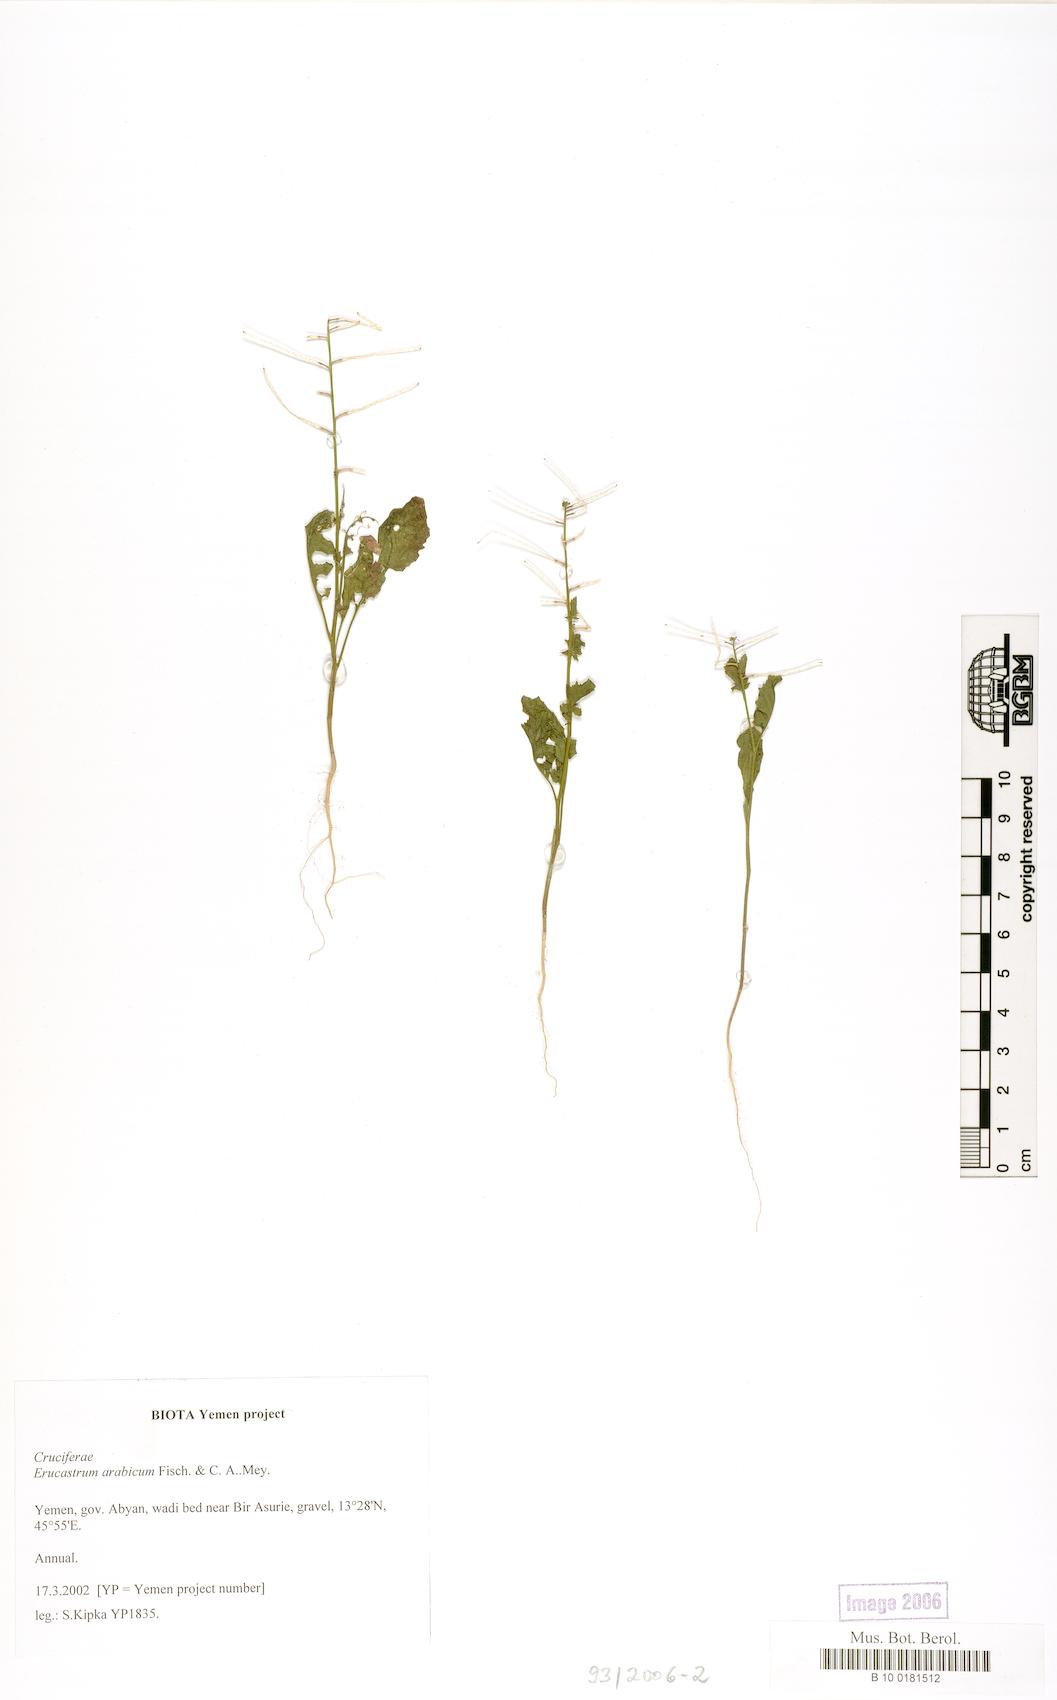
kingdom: Plantae
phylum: Tracheophyta
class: Magnoliopsida
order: Brassicales
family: Brassicaceae
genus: Erucastrum
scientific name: Erucastrum arabicum
